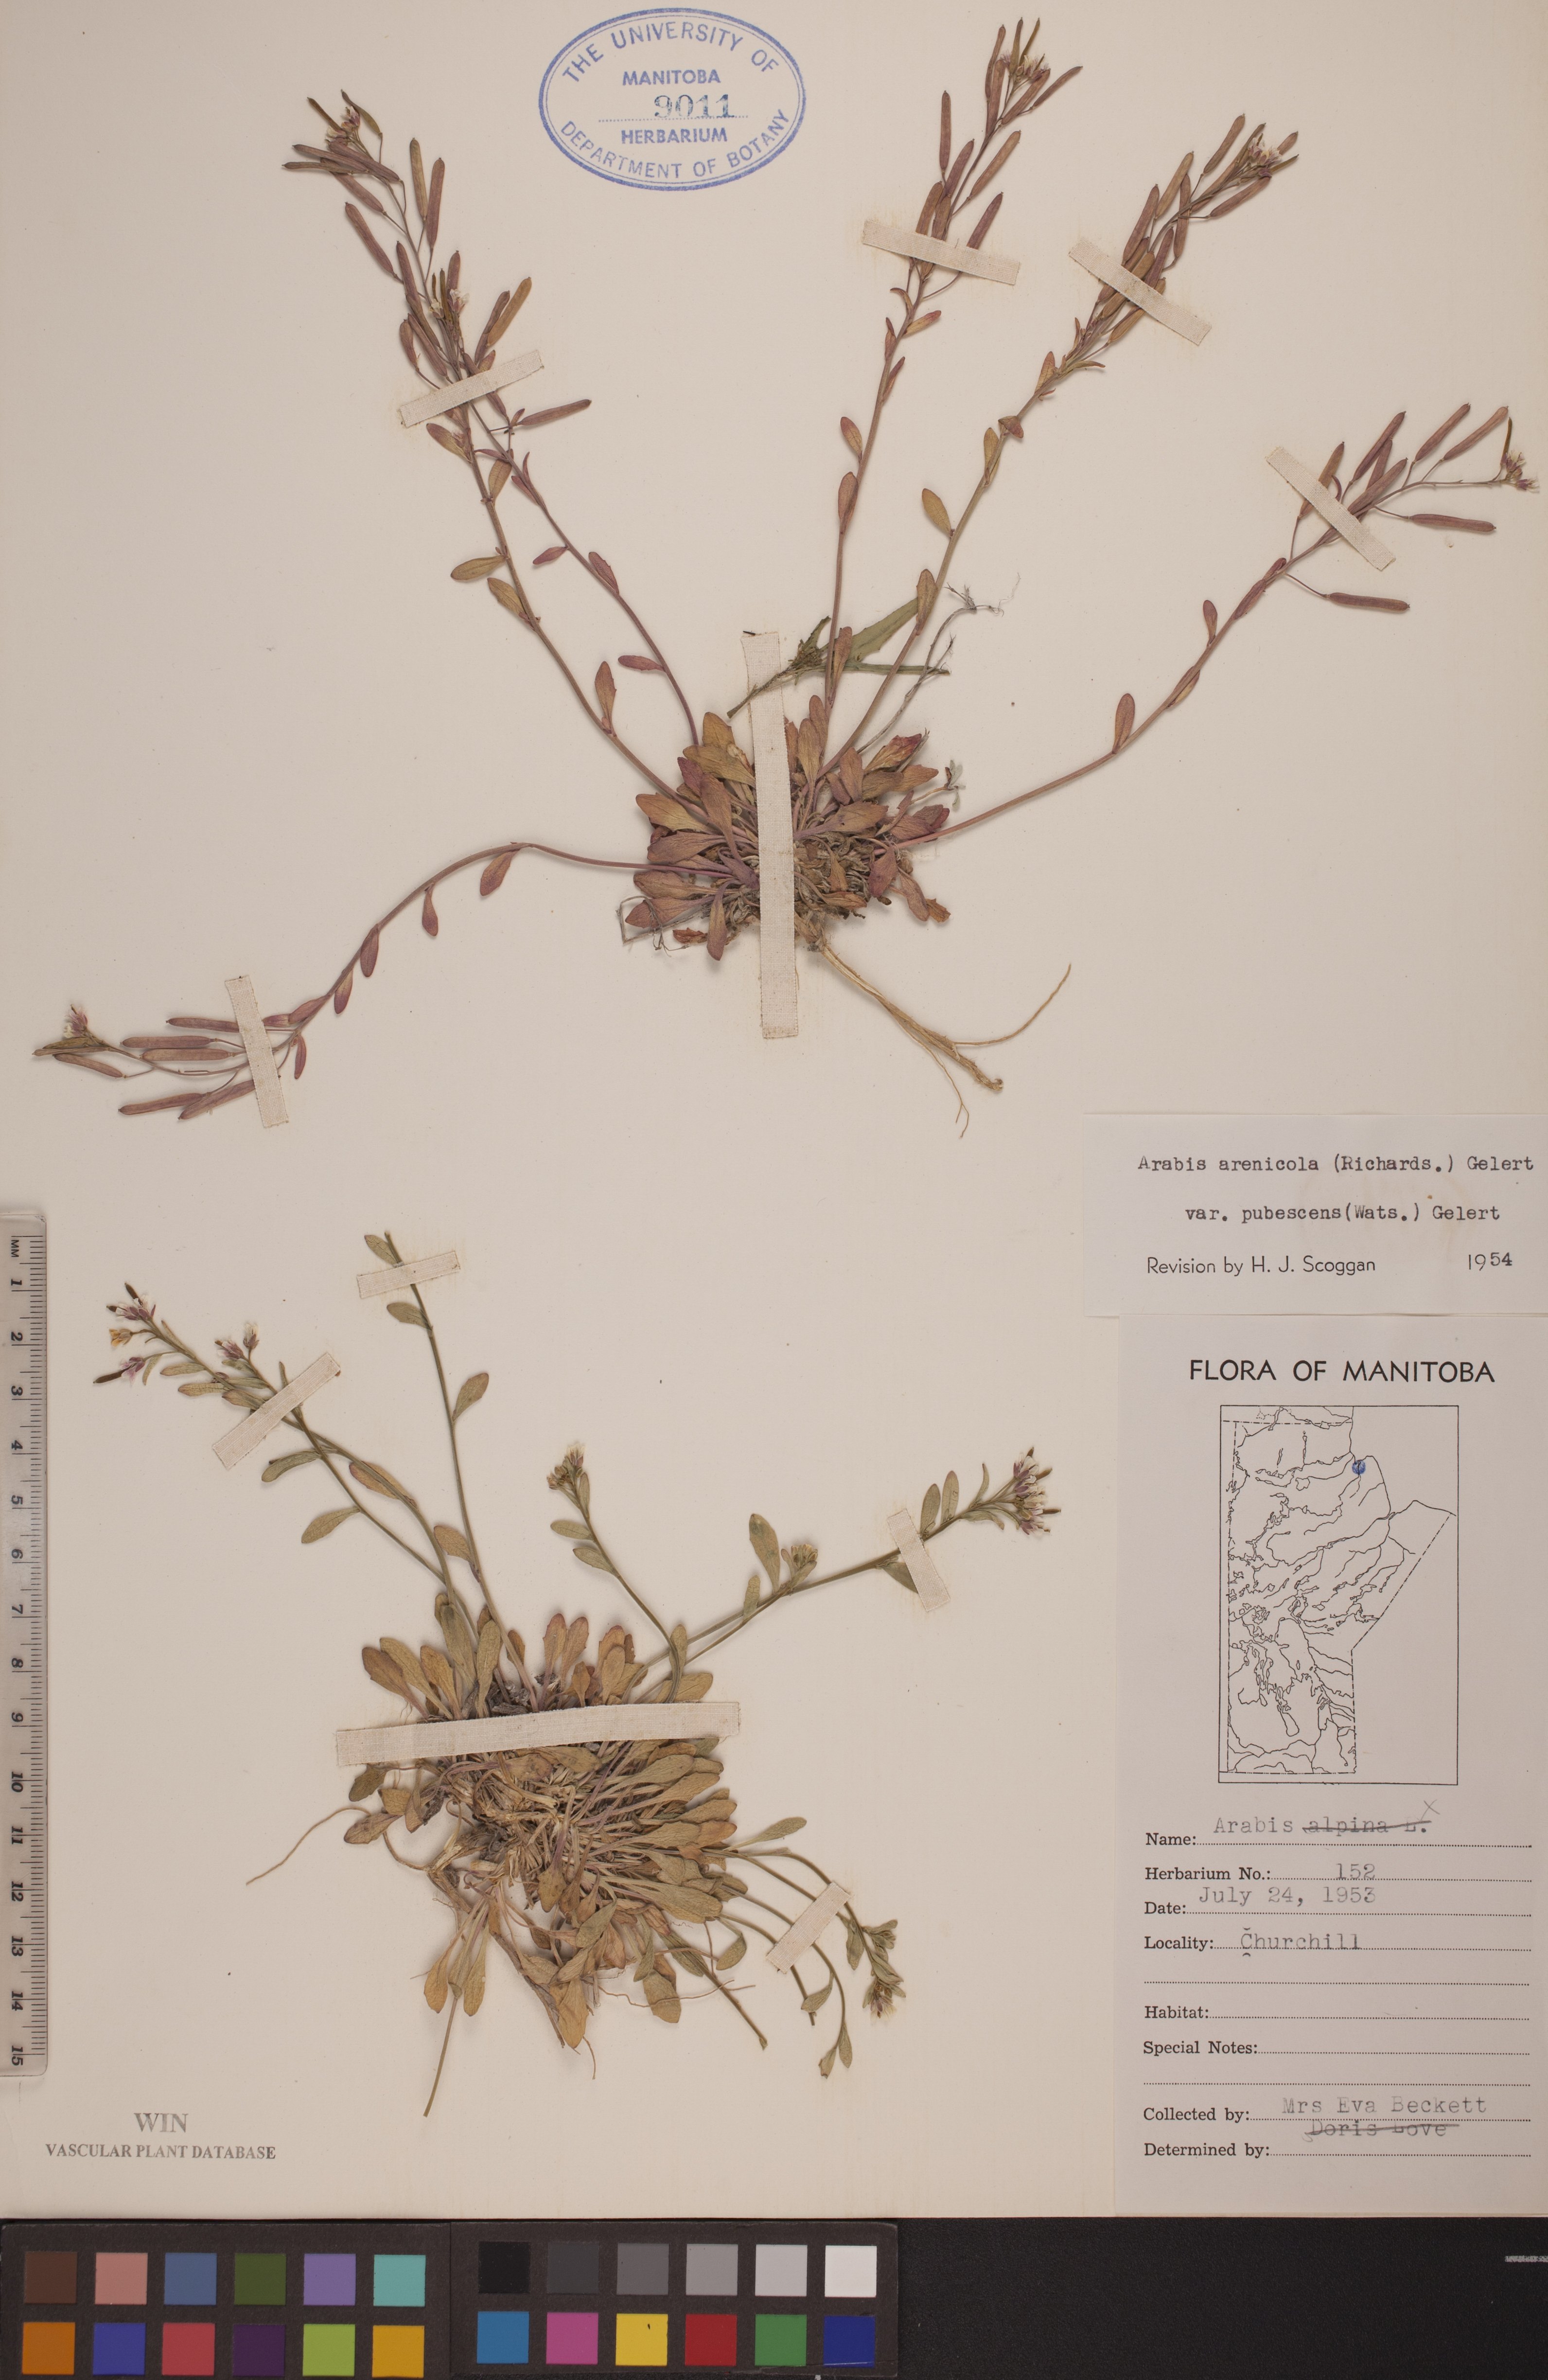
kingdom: Plantae
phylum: Tracheophyta
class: Magnoliopsida
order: Brassicales
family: Brassicaceae
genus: Arabidopsis
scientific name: Arabidopsis arenicola
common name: Arctic rockcress
